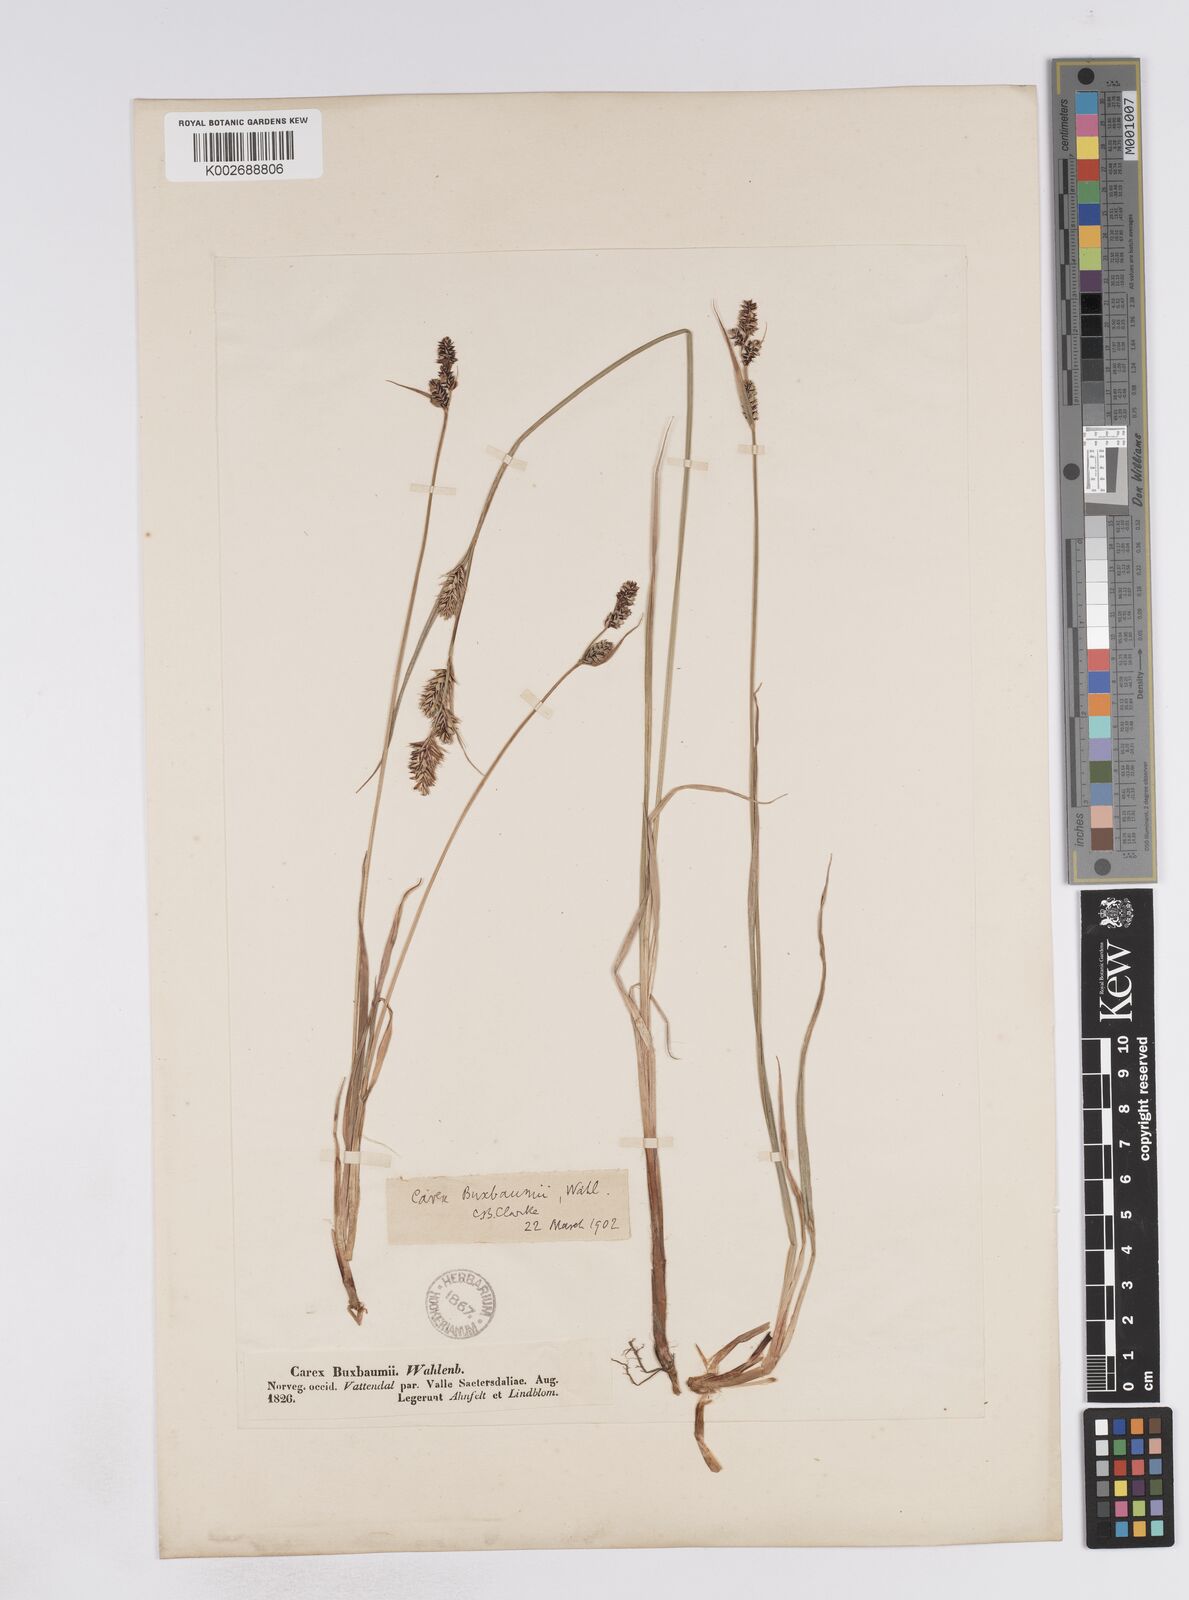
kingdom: Plantae
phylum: Tracheophyta
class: Liliopsida
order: Poales
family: Cyperaceae
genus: Carex
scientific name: Carex buxbaumii
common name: Club sedge
